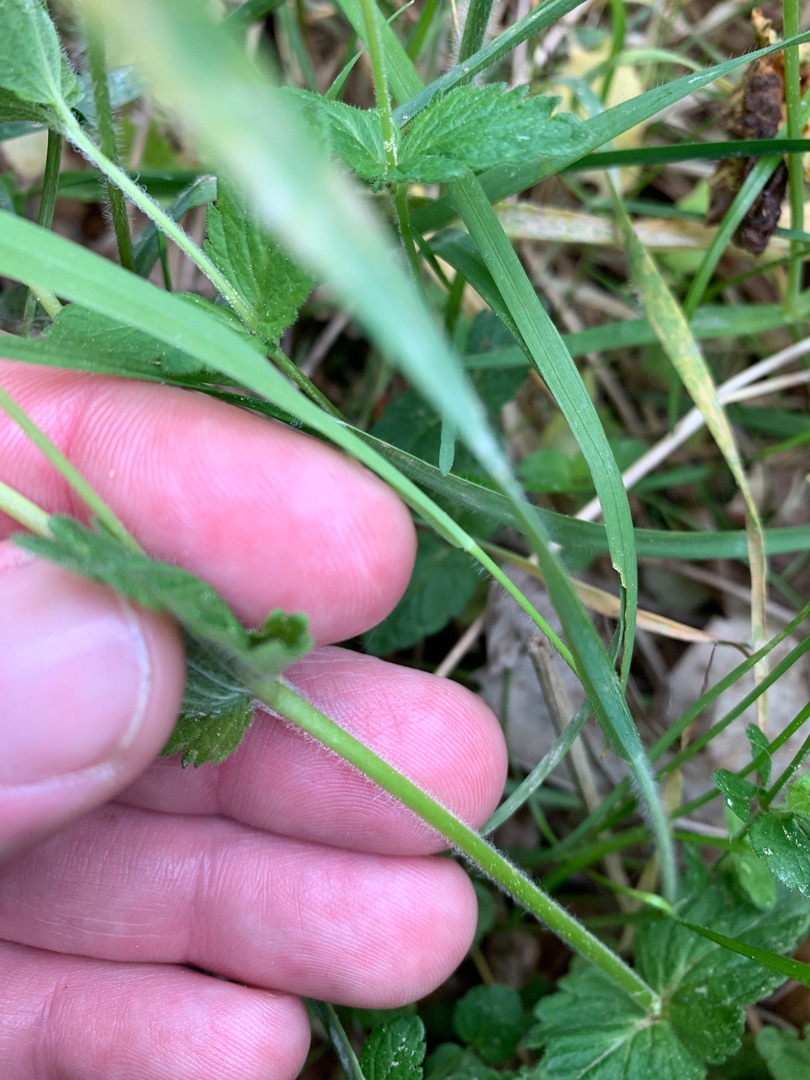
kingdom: Plantae
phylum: Tracheophyta
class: Magnoliopsida
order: Lamiales
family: Plantaginaceae
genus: Veronica
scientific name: Veronica chamaedrys
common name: Tveskægget ærenpris
